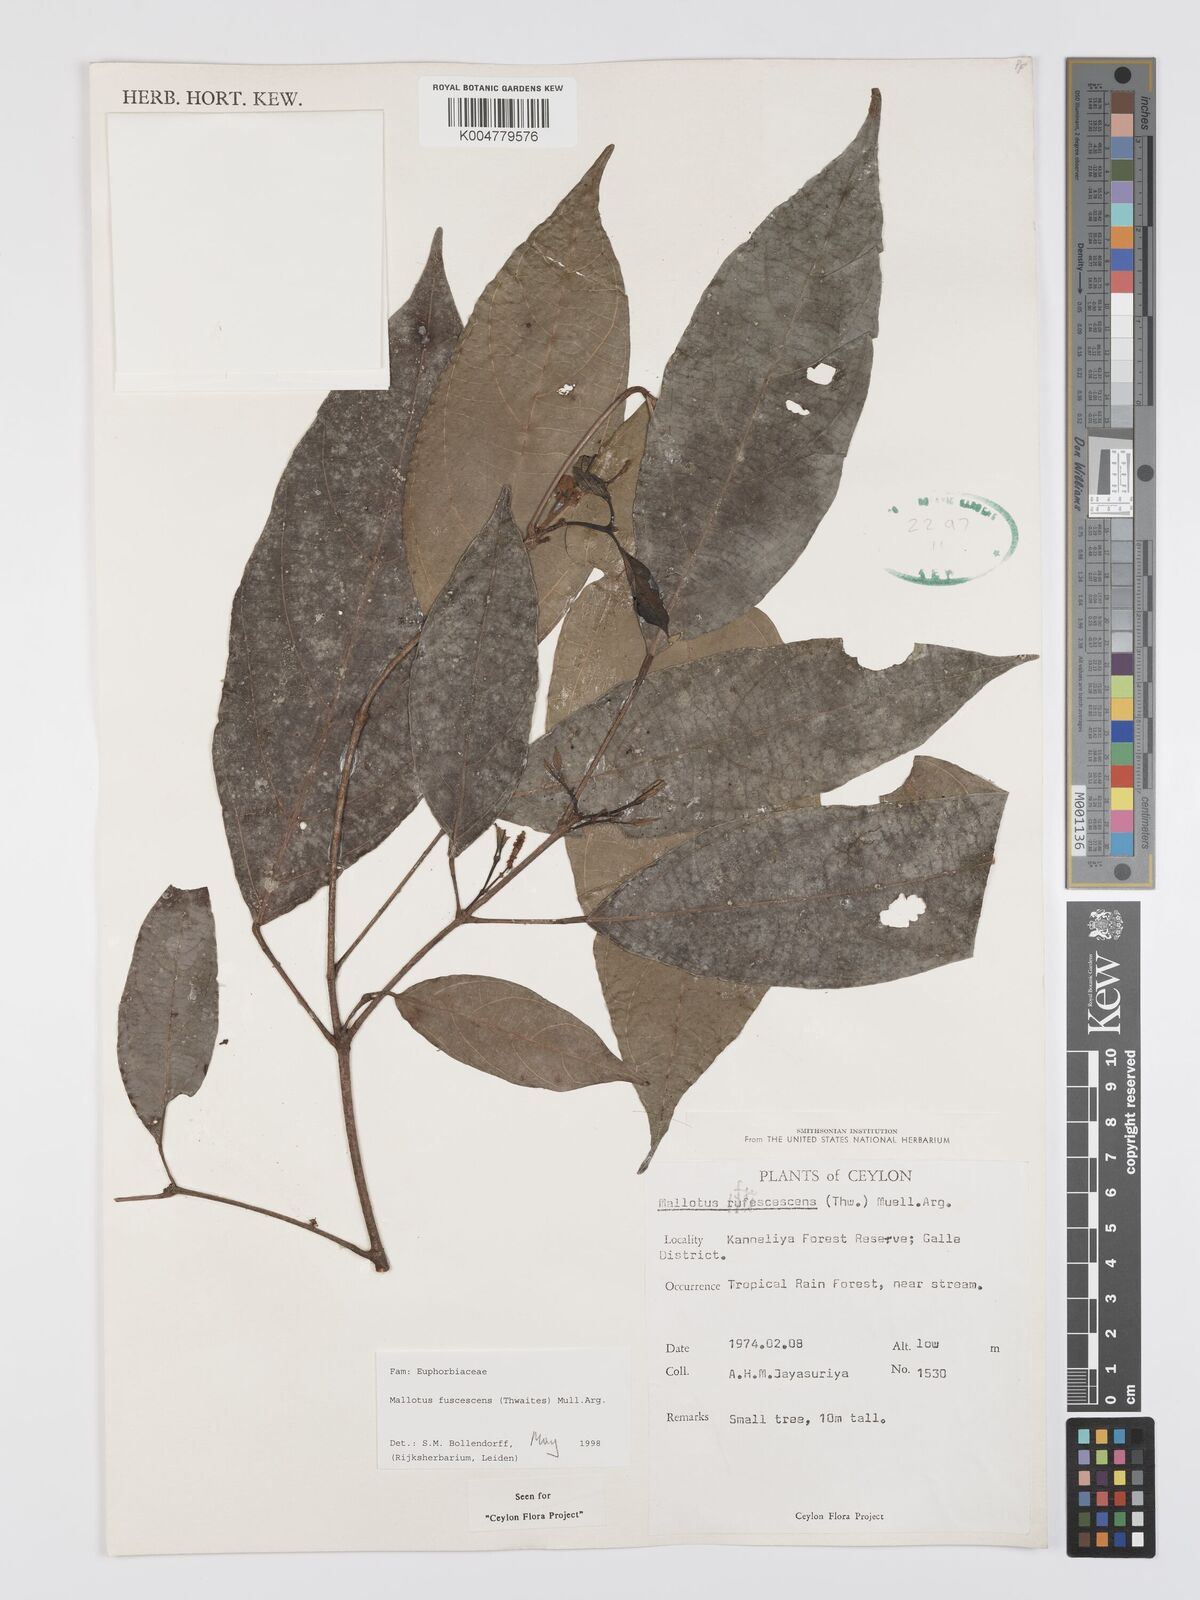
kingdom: Plantae
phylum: Tracheophyta
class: Magnoliopsida
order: Malpighiales
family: Euphorbiaceae
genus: Mallotus
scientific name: Mallotus fuscescens
